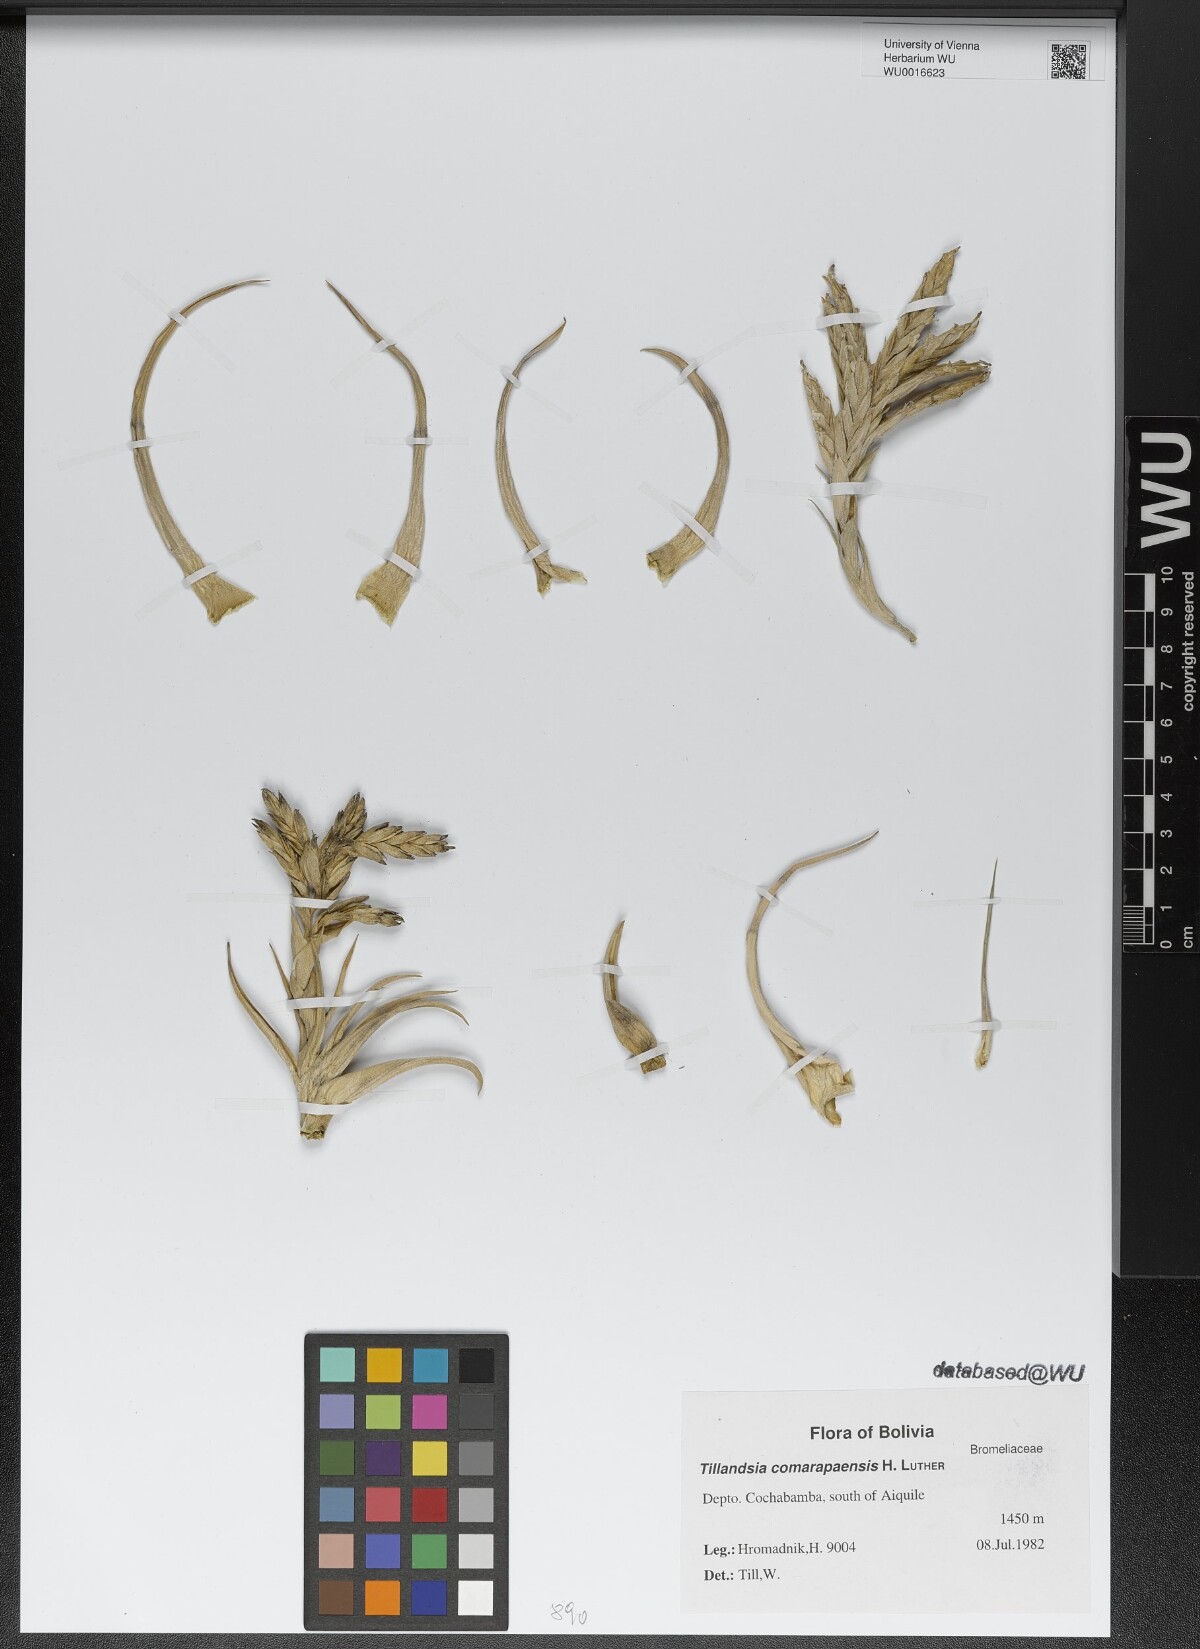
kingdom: Plantae
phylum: Tracheophyta
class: Liliopsida
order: Poales
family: Bromeliaceae
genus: Tillandsia
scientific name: Tillandsia comarapaensis
